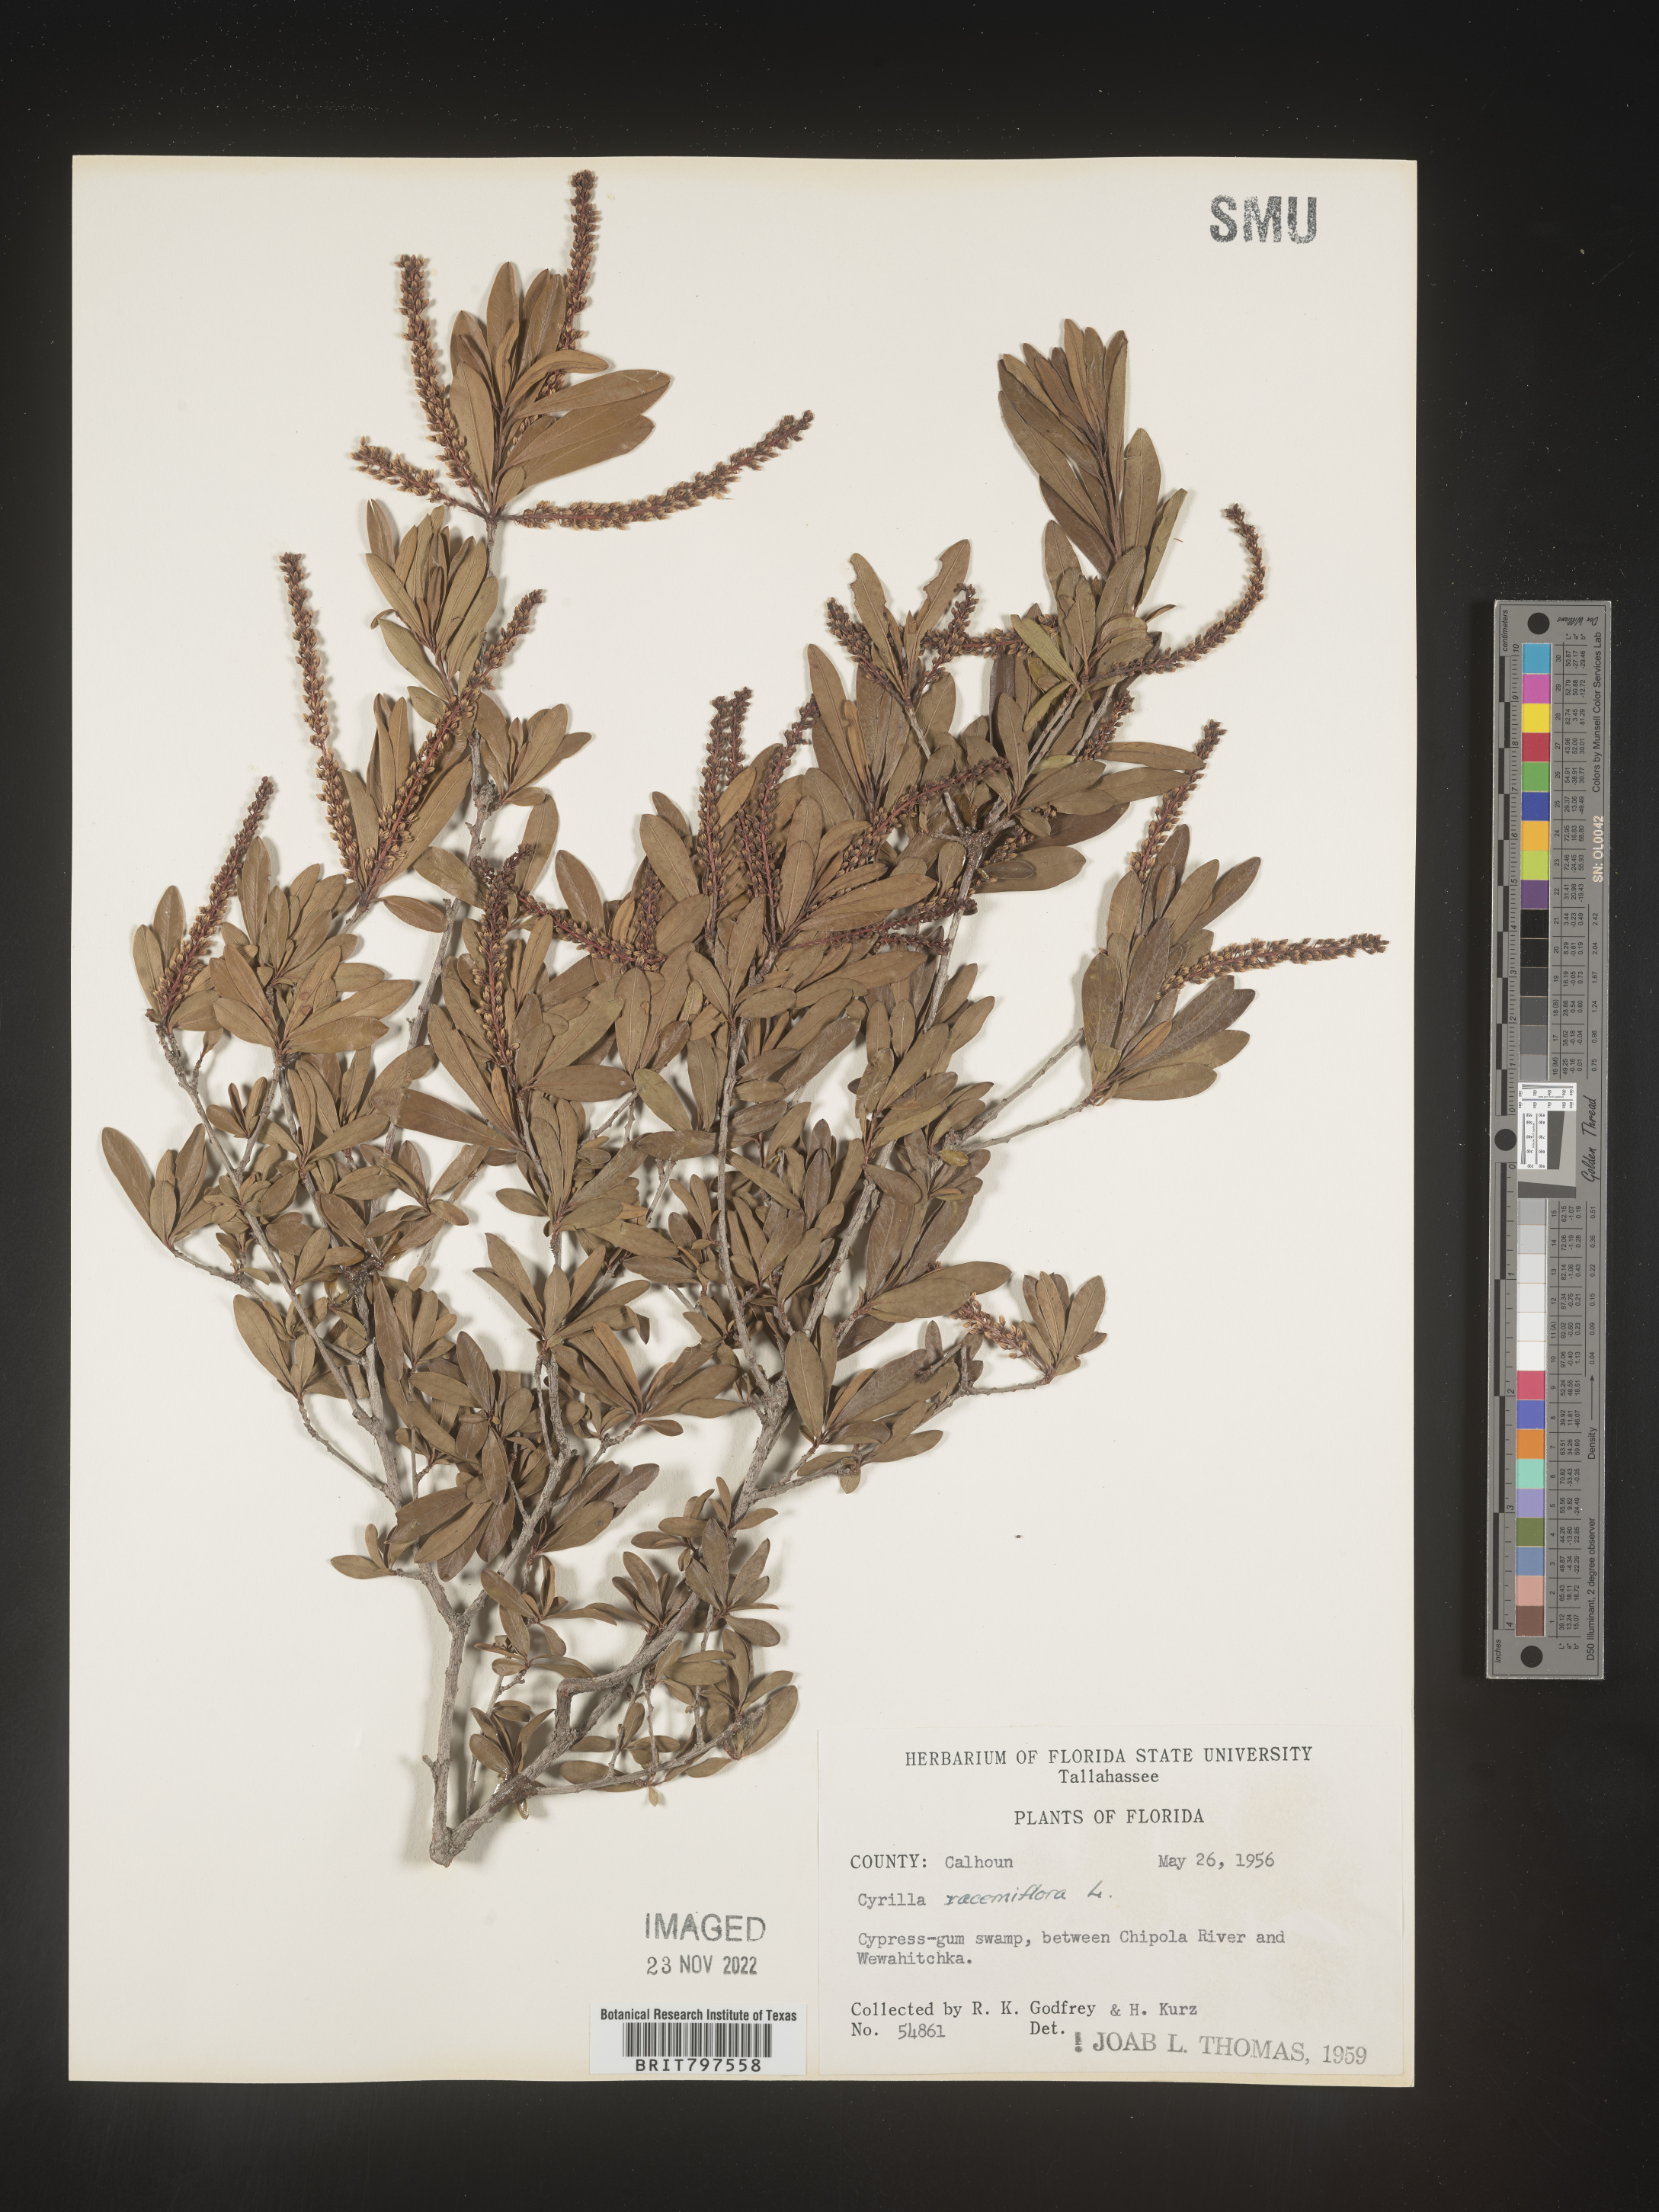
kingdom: Plantae
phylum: Tracheophyta
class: Magnoliopsida
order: Ericales
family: Cyrillaceae
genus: Cyrilla
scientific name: Cyrilla racemiflora
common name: Black titi
